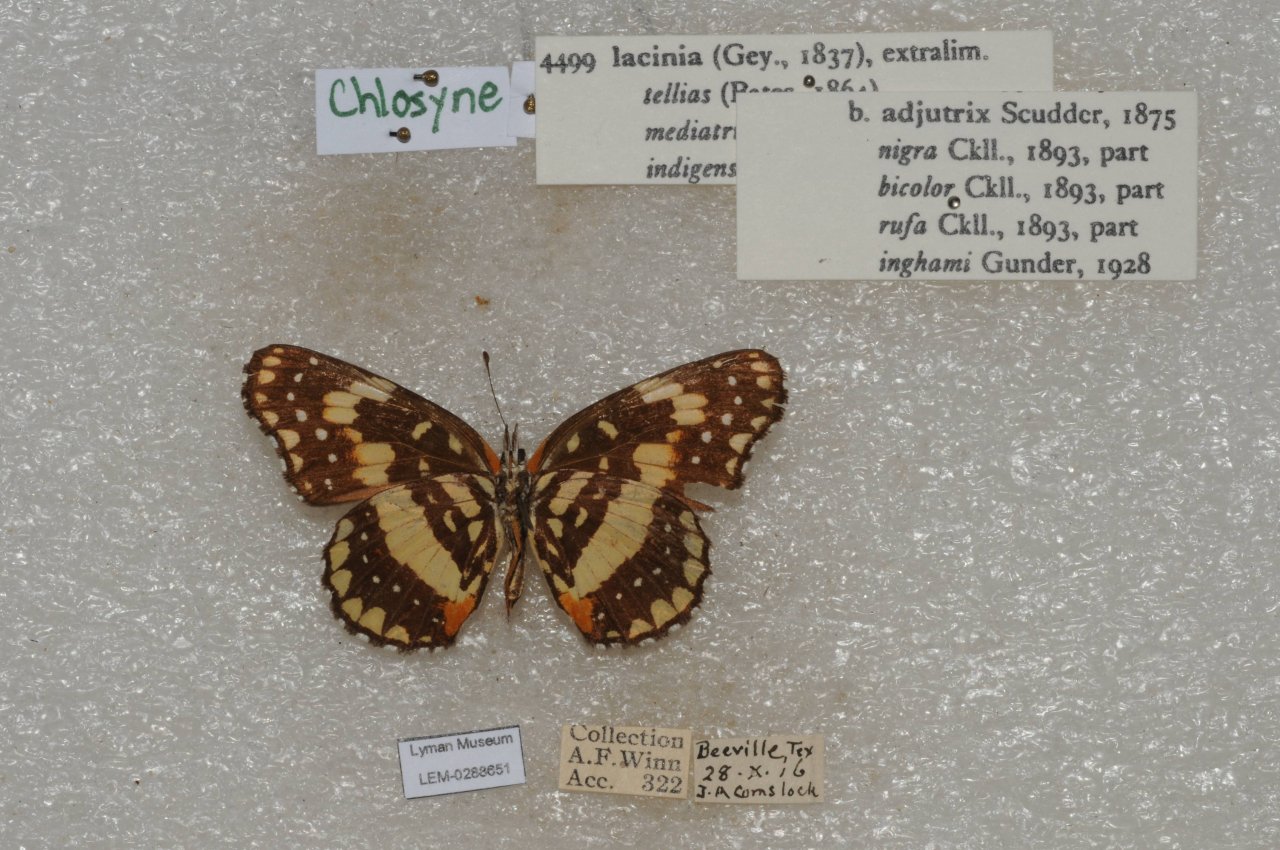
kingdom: Animalia
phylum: Arthropoda
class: Insecta
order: Lepidoptera
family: Nymphalidae
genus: Chlosyne
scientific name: Chlosyne lacinia
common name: Bordered Patch
